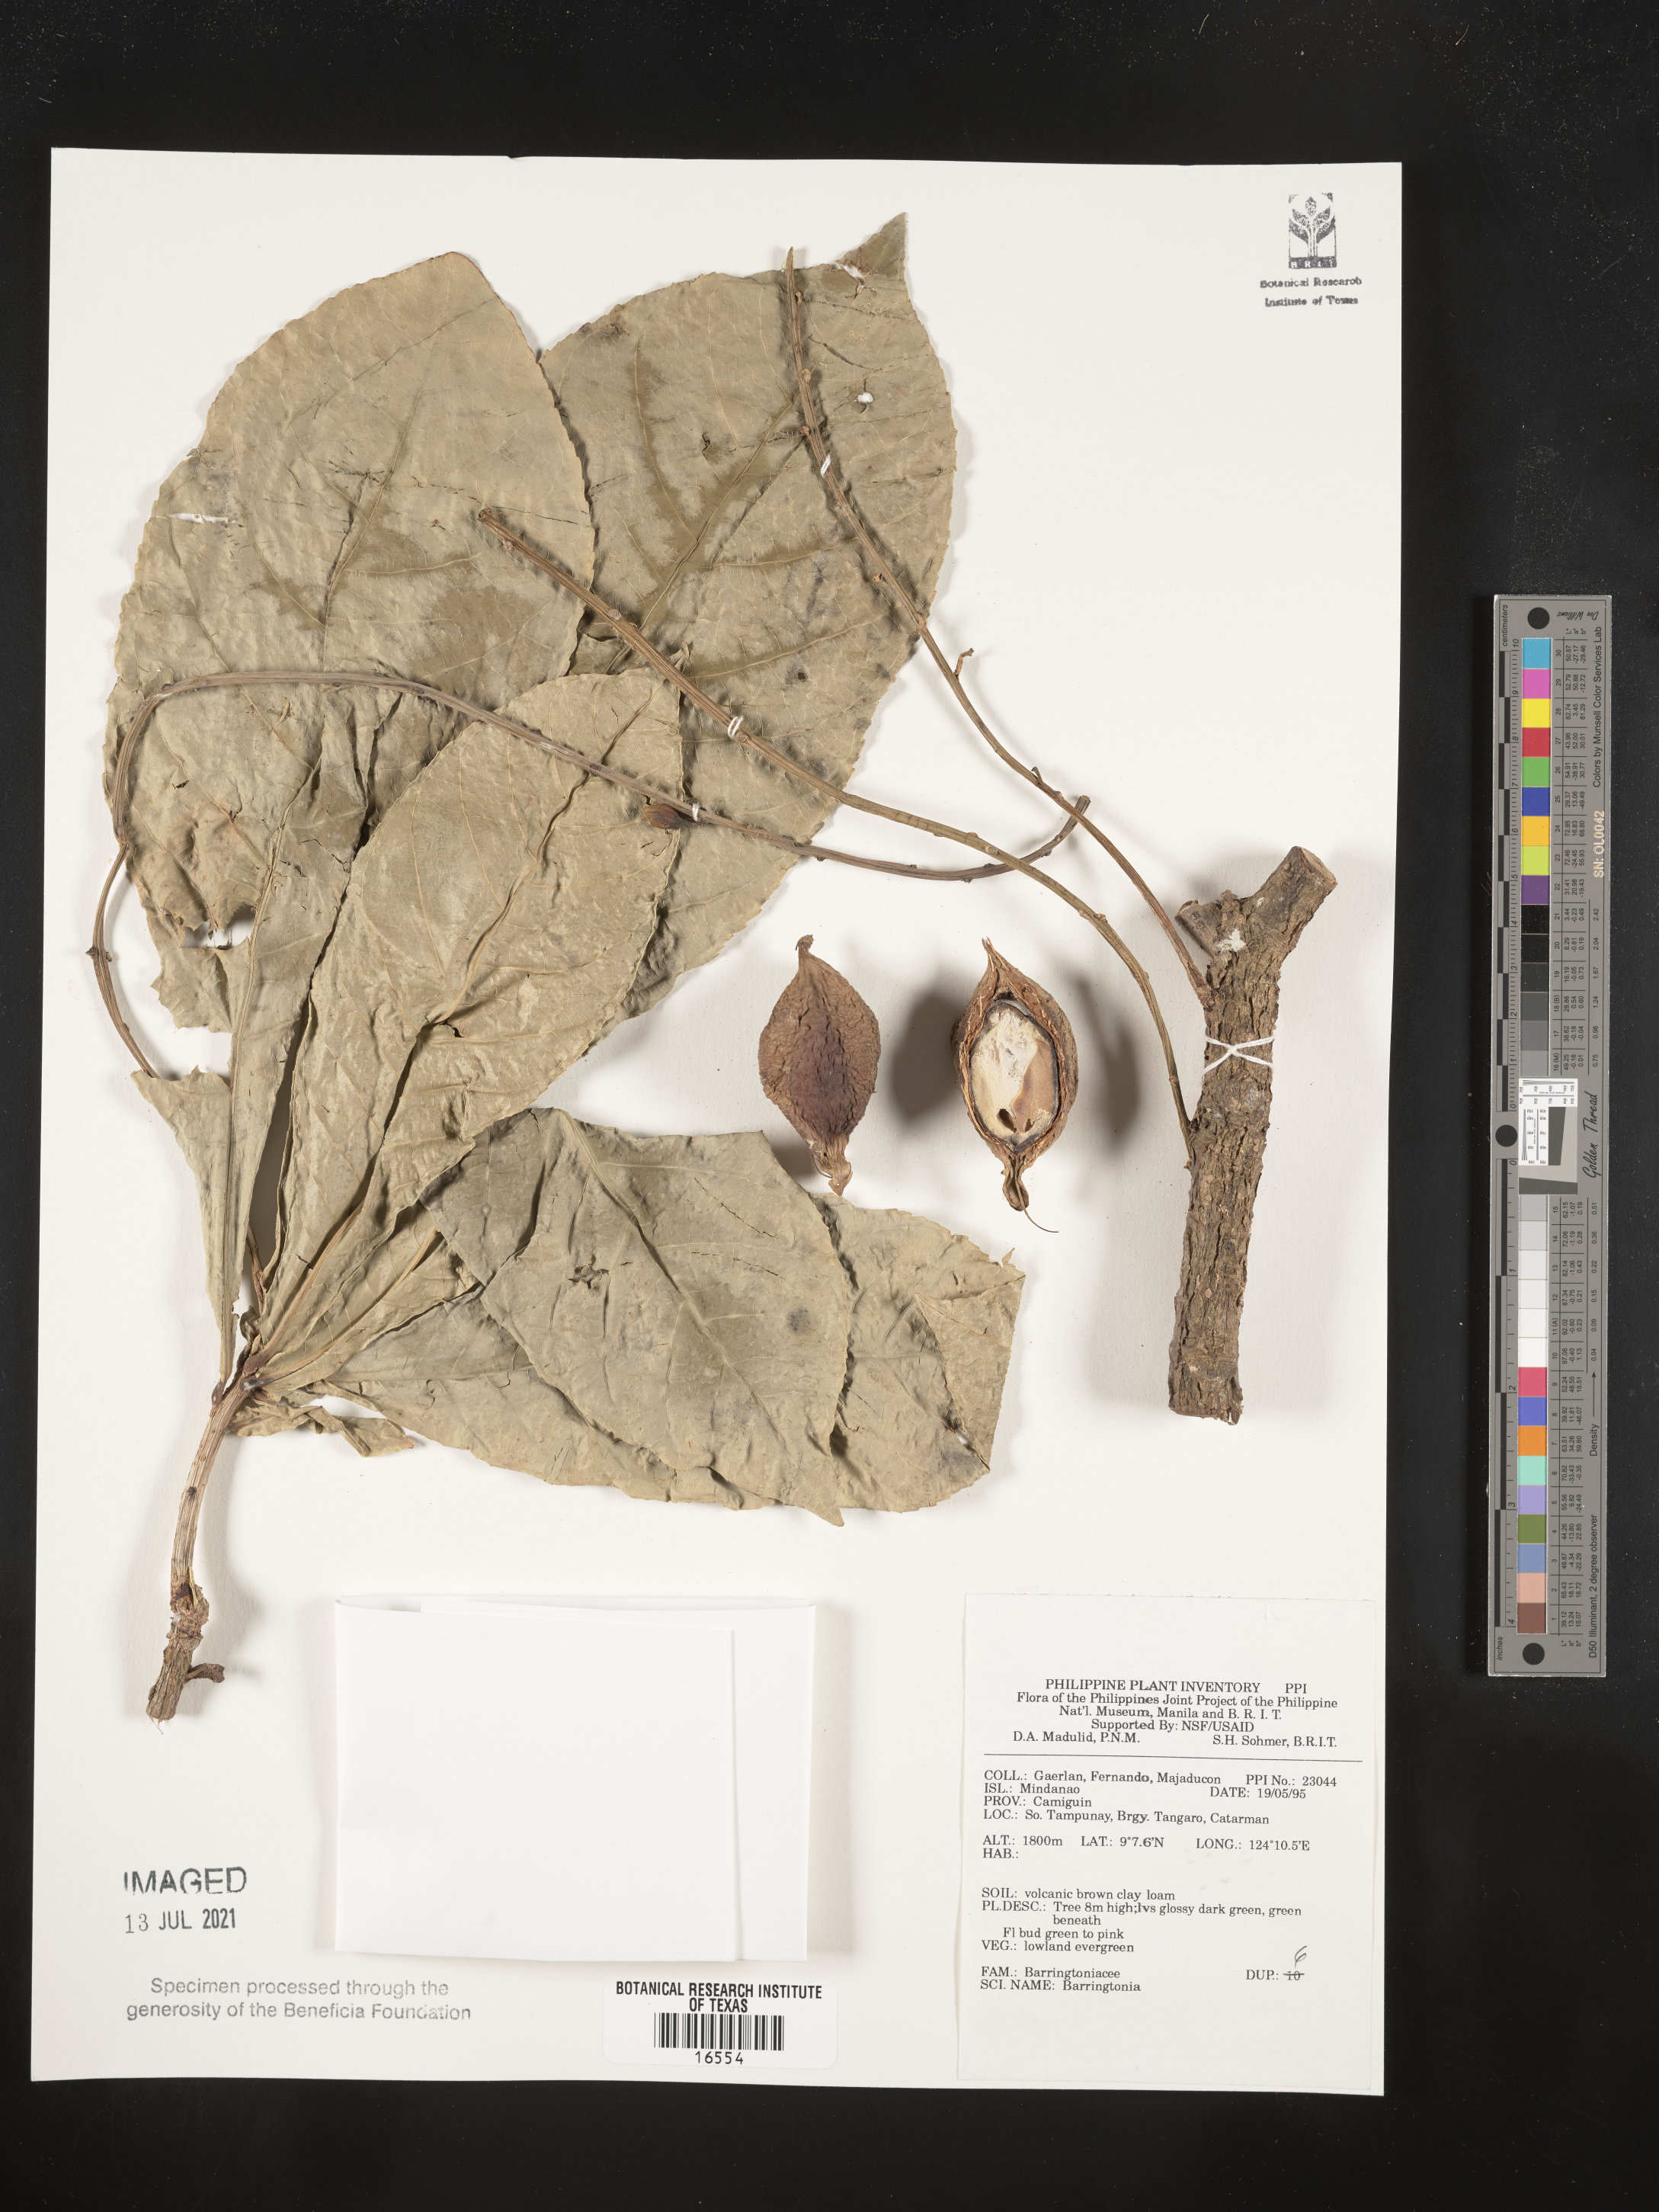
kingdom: Plantae
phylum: Tracheophyta
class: Magnoliopsida
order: Ericales
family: Lecythidaceae
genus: Barringtonia
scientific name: Barringtonia
